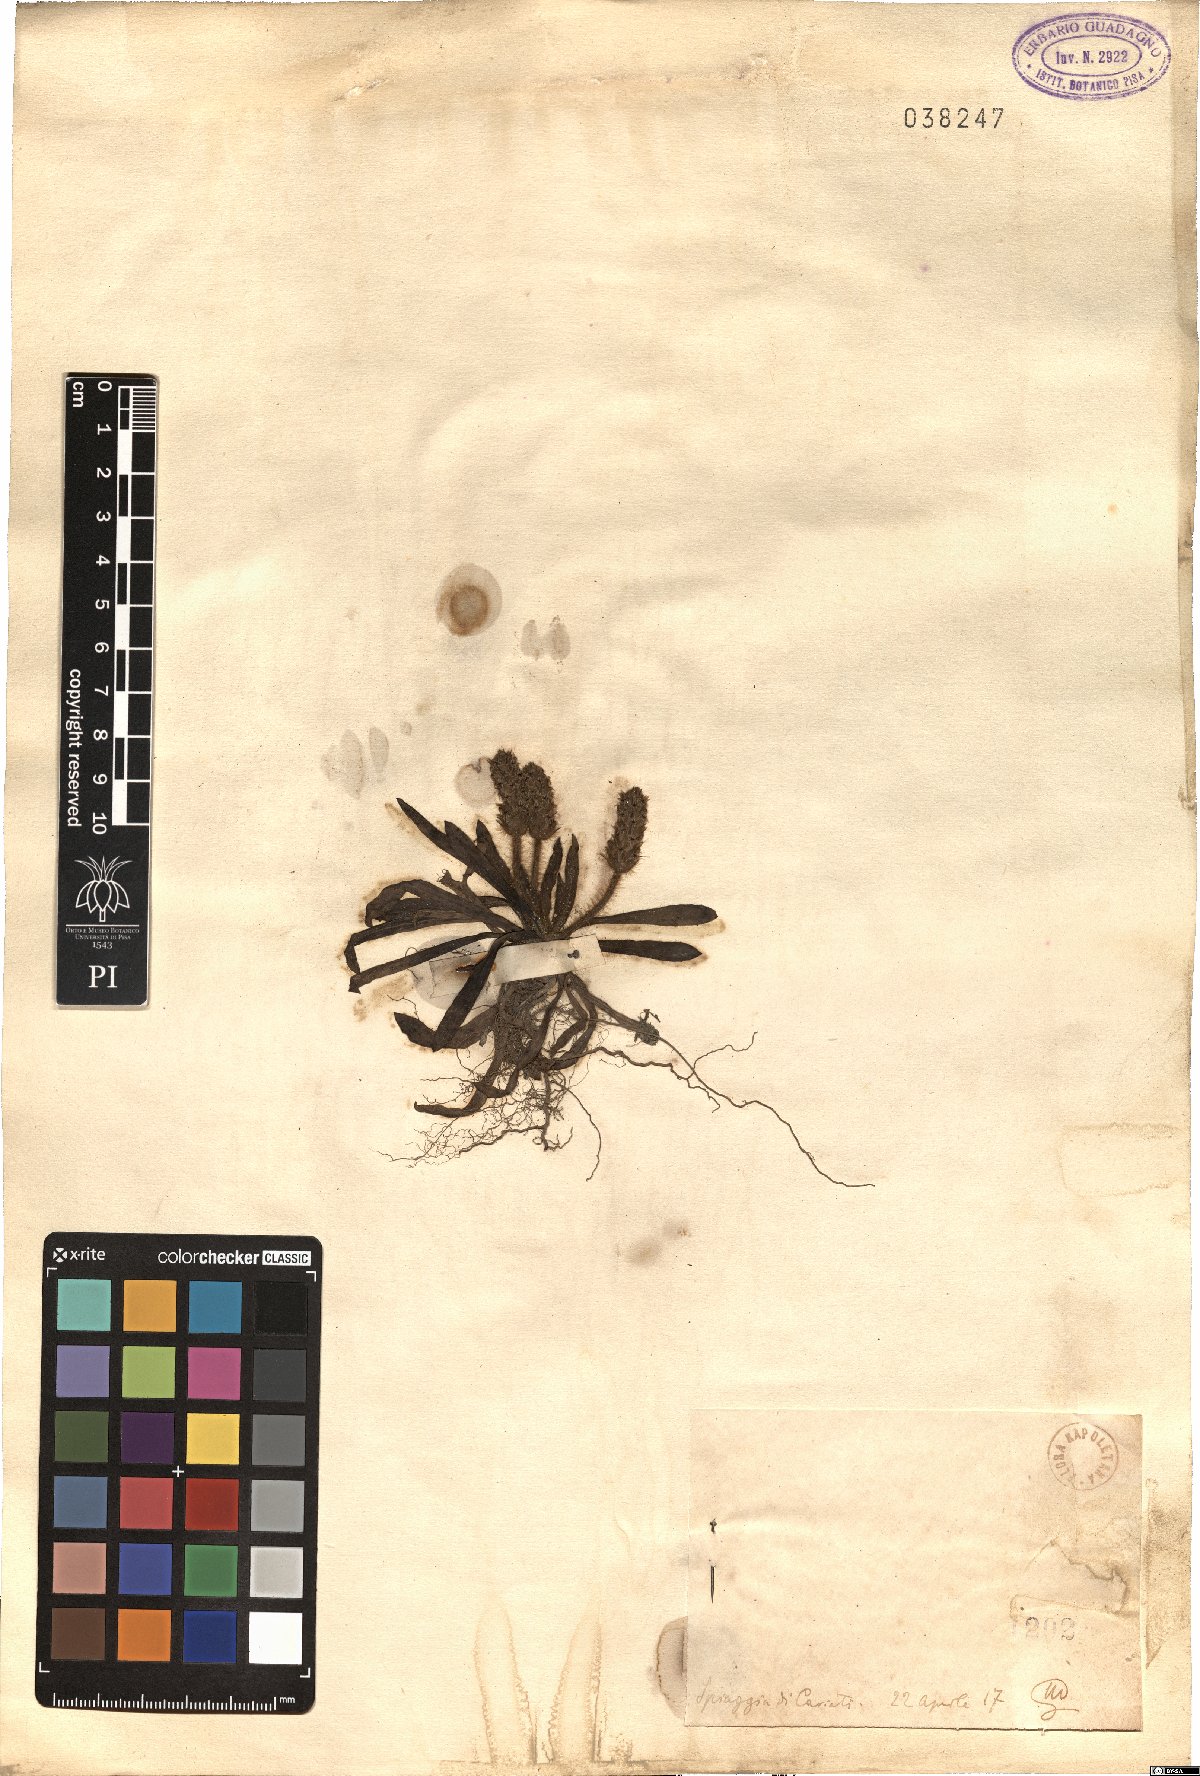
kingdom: Plantae
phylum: Tracheophyta
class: Magnoliopsida
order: Lamiales
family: Plantaginaceae
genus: Plantago
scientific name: Plantago
